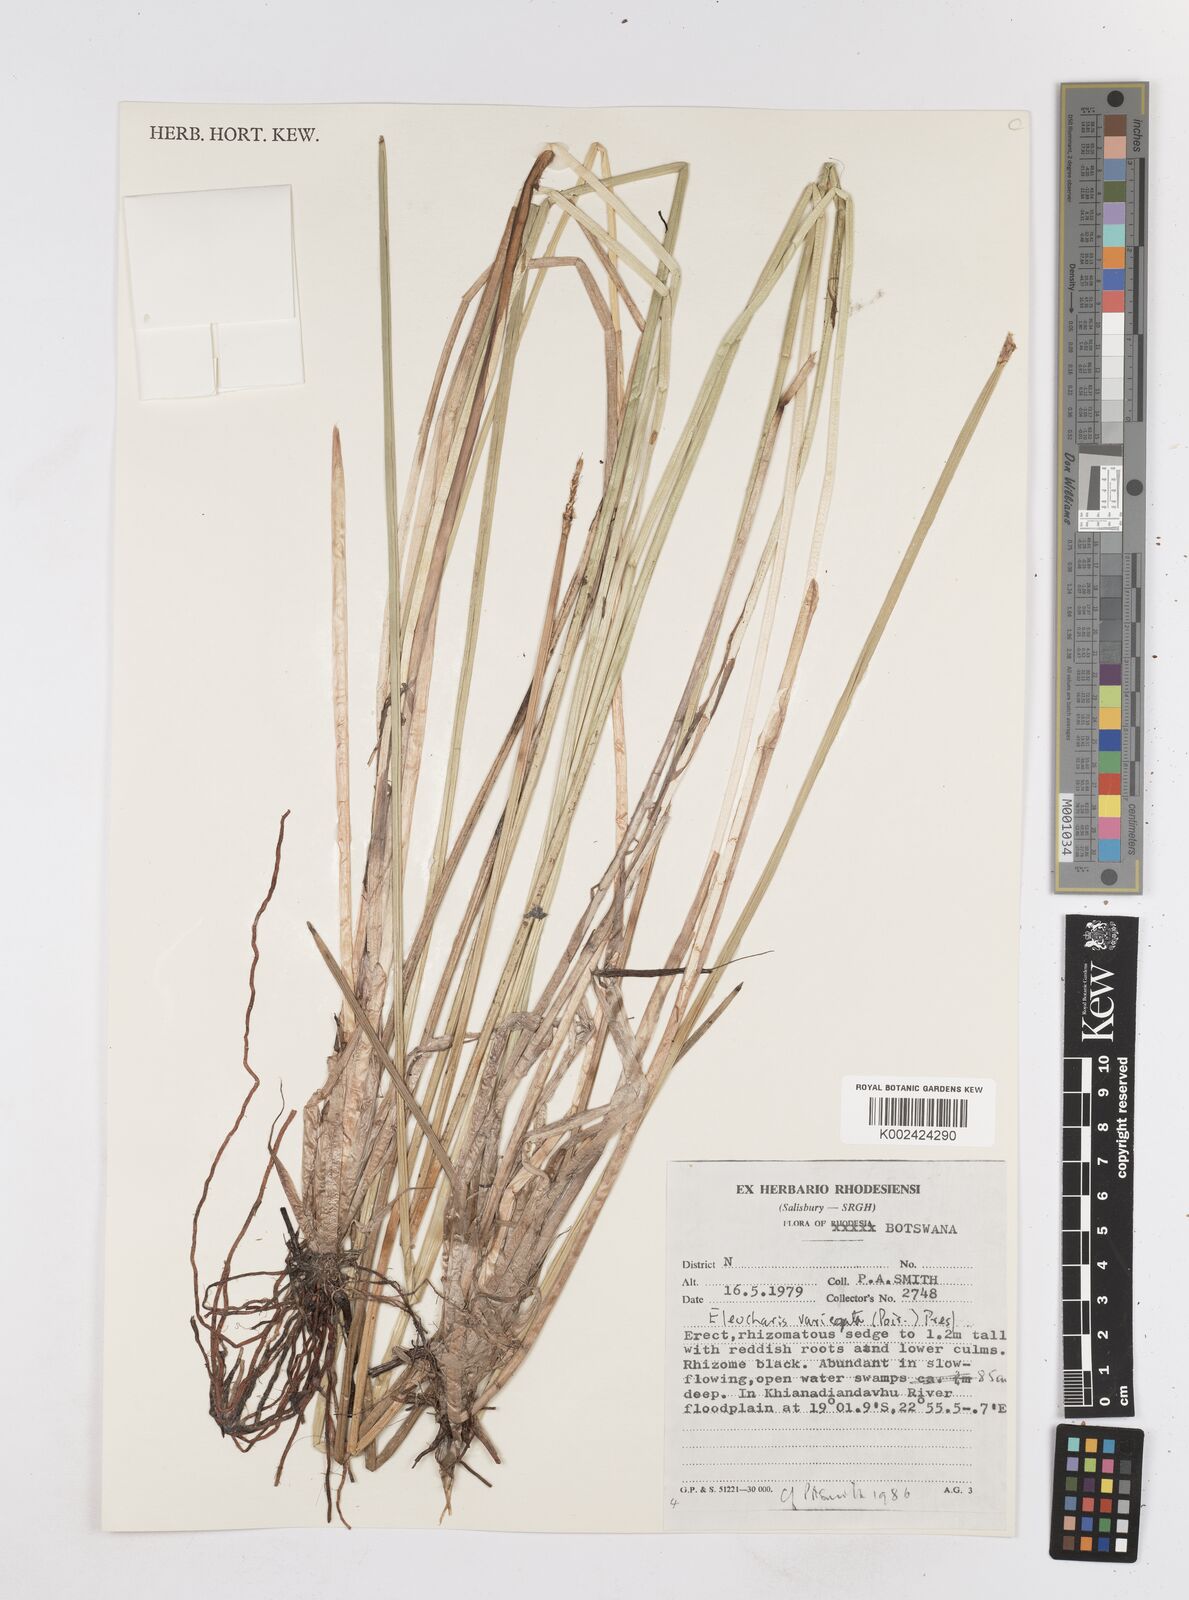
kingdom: Plantae
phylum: Tracheophyta
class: Liliopsida
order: Poales
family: Cyperaceae
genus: Eleocharis
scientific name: Eleocharis variegata
